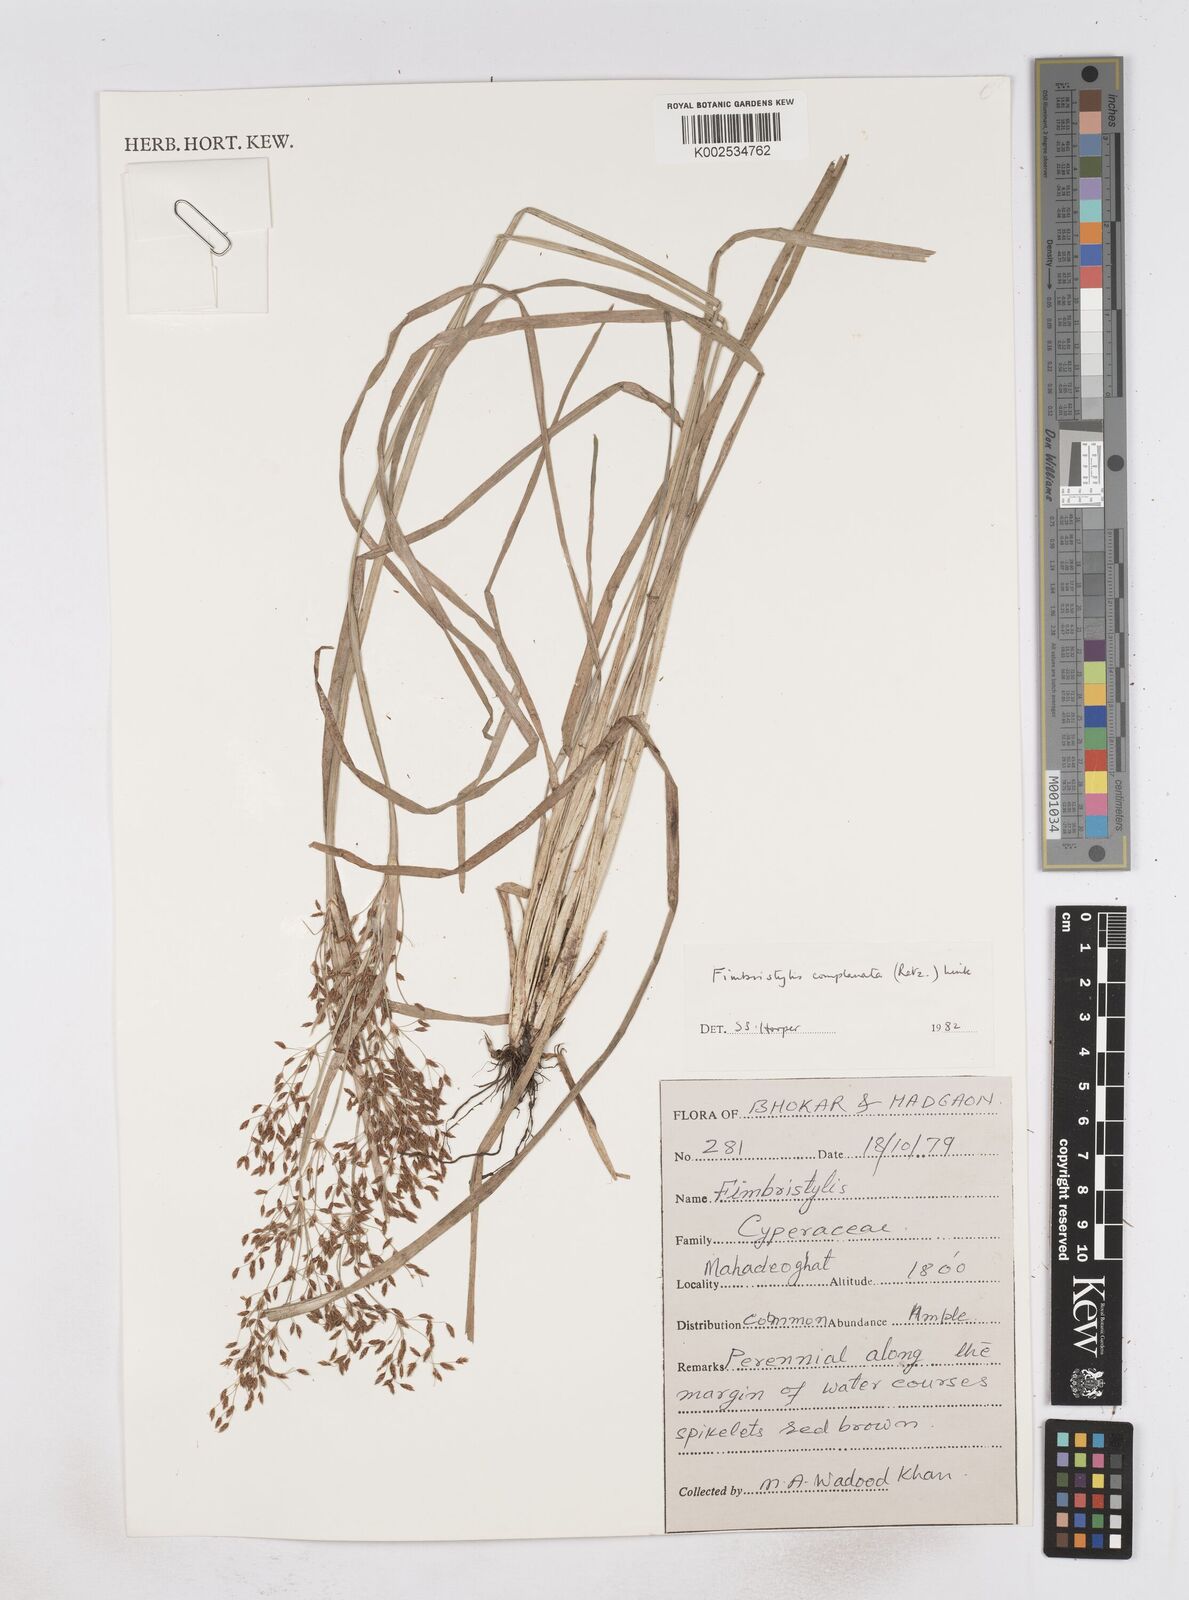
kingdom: Plantae
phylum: Tracheophyta
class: Liliopsida
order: Poales
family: Cyperaceae
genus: Fimbristylis
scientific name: Fimbristylis complanata
